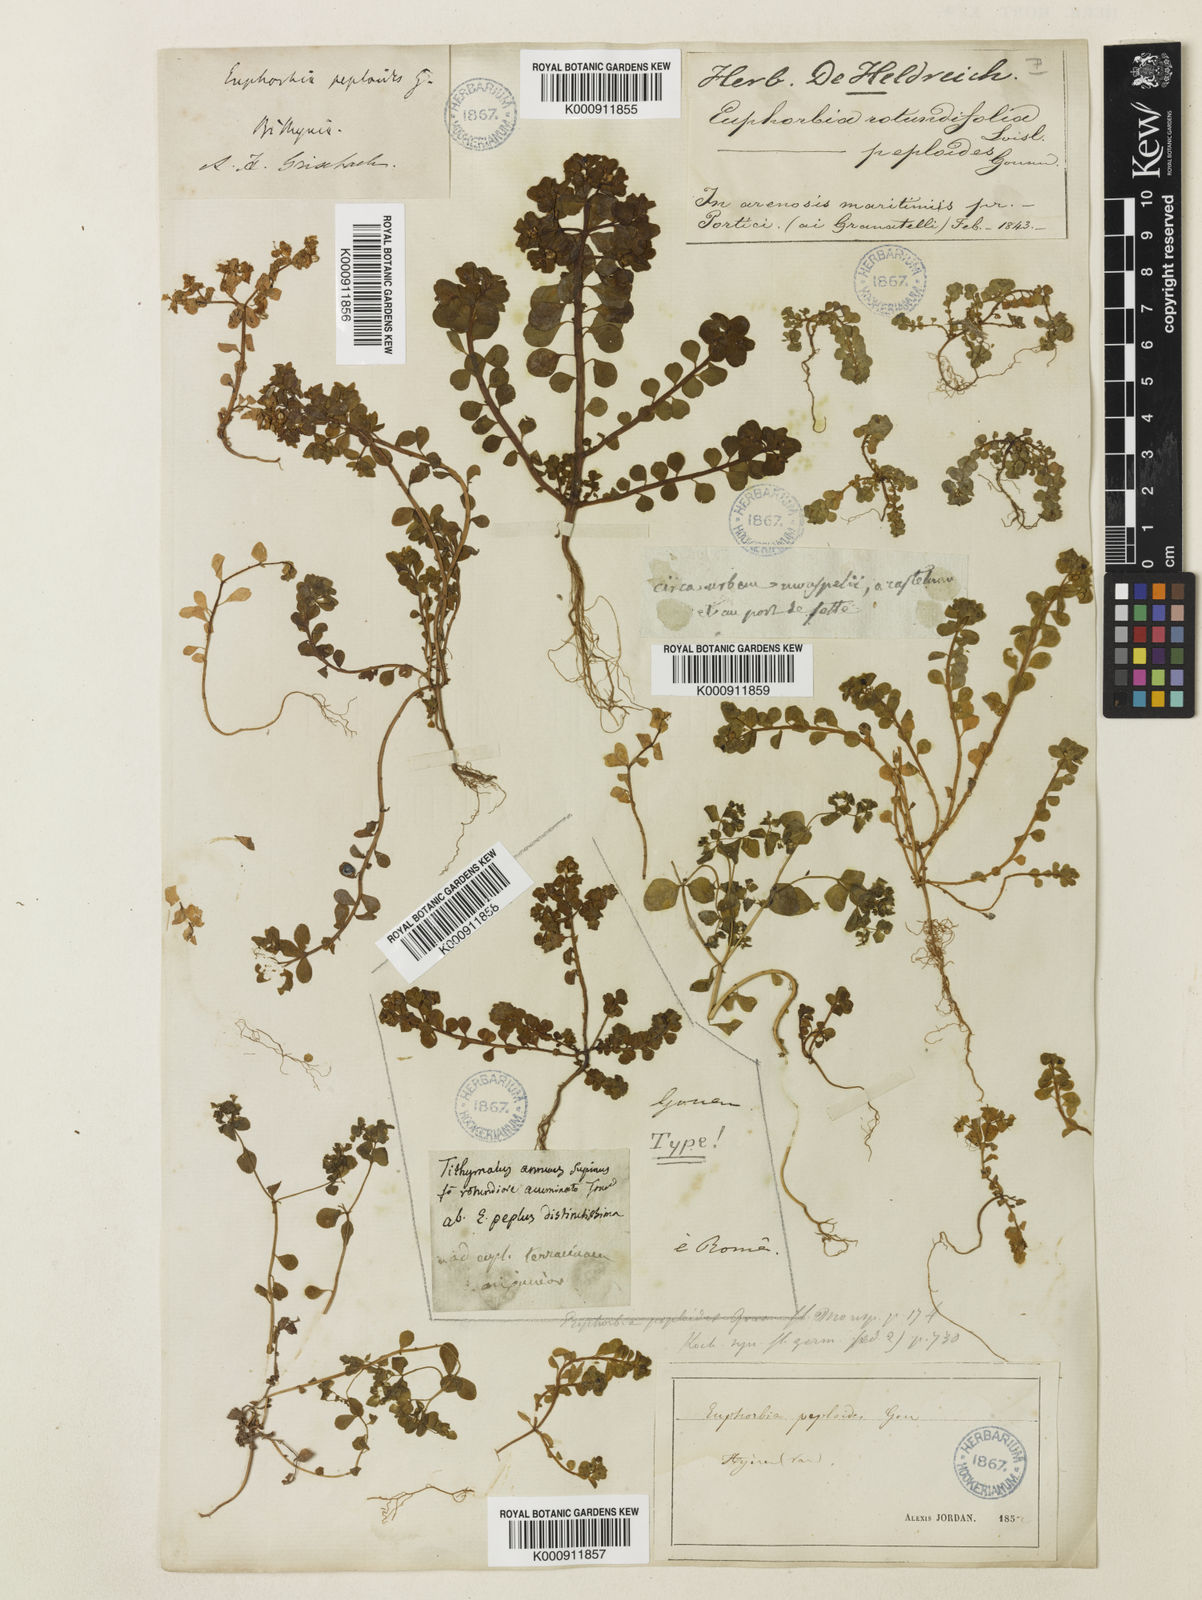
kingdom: Plantae
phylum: Tracheophyta
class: Magnoliopsida
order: Malpighiales
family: Euphorbiaceae
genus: Euphorbia
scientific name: Euphorbia peplus
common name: Petty spurge
